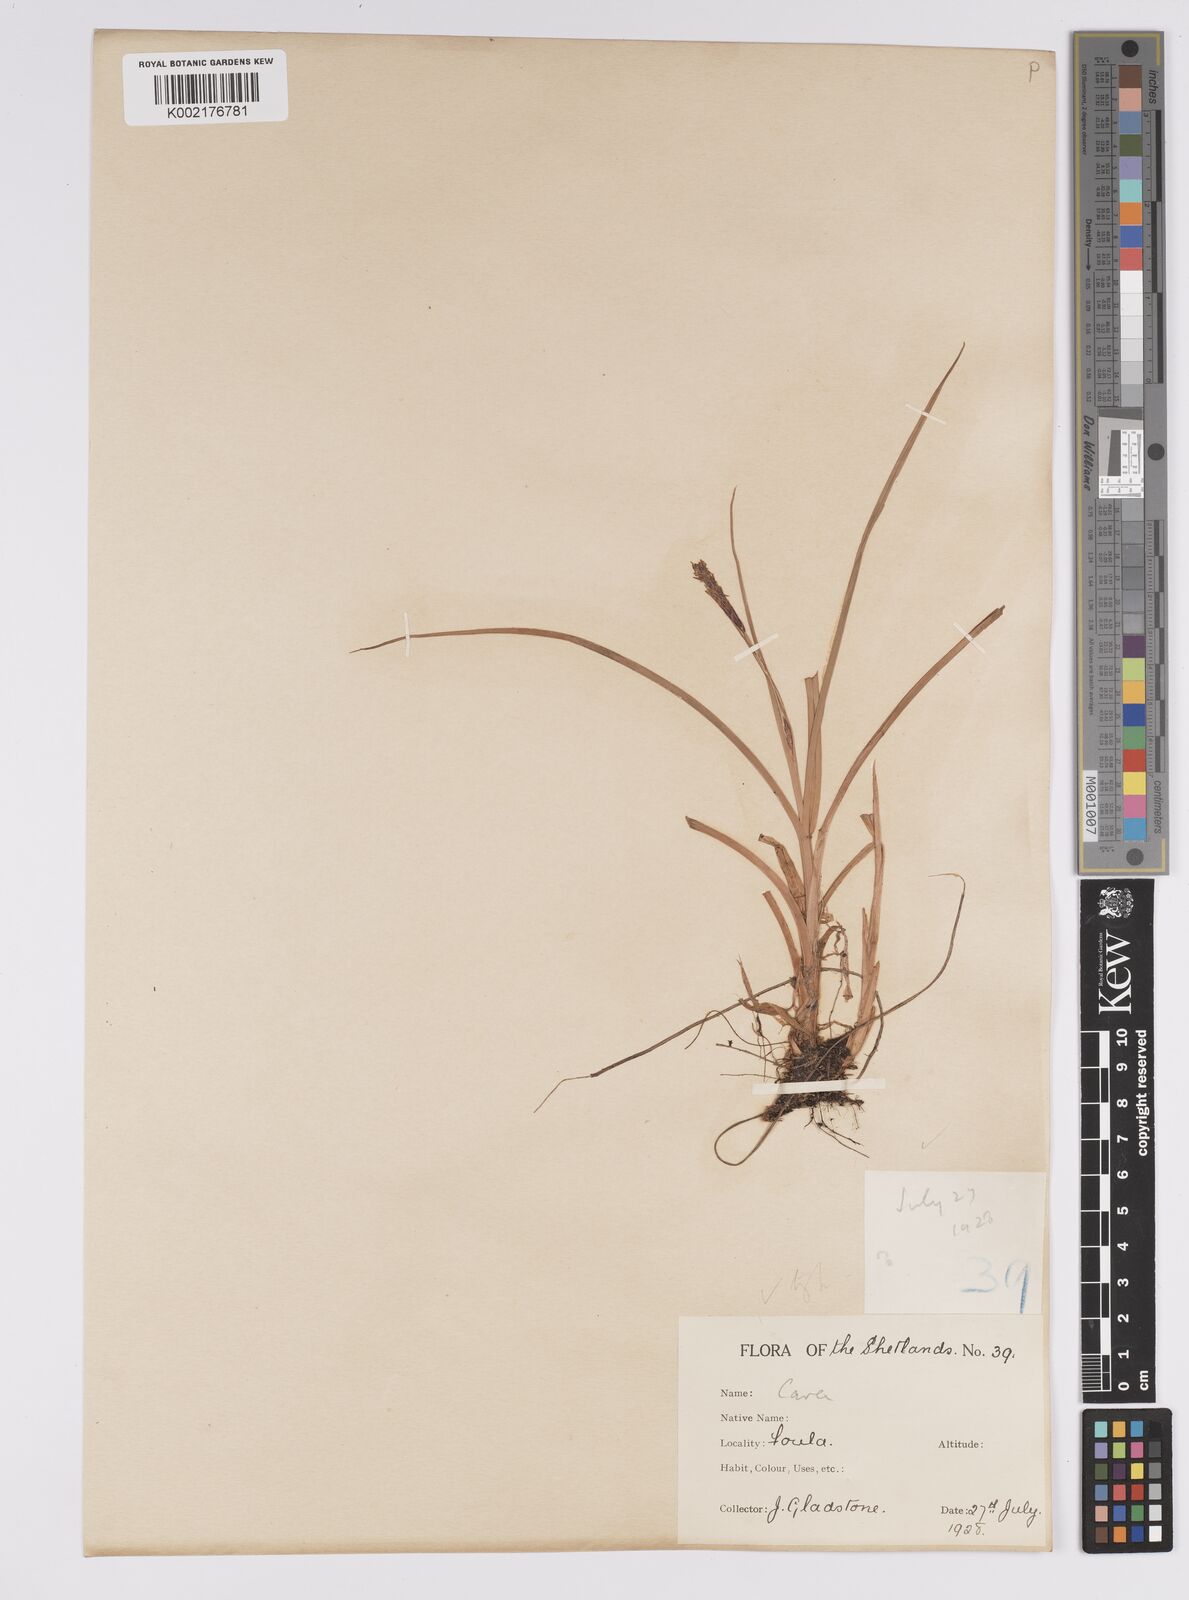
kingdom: Plantae
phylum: Tracheophyta
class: Liliopsida
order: Poales
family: Cyperaceae
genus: Carex
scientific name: Carex binervis
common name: Green-ribbed sedge
